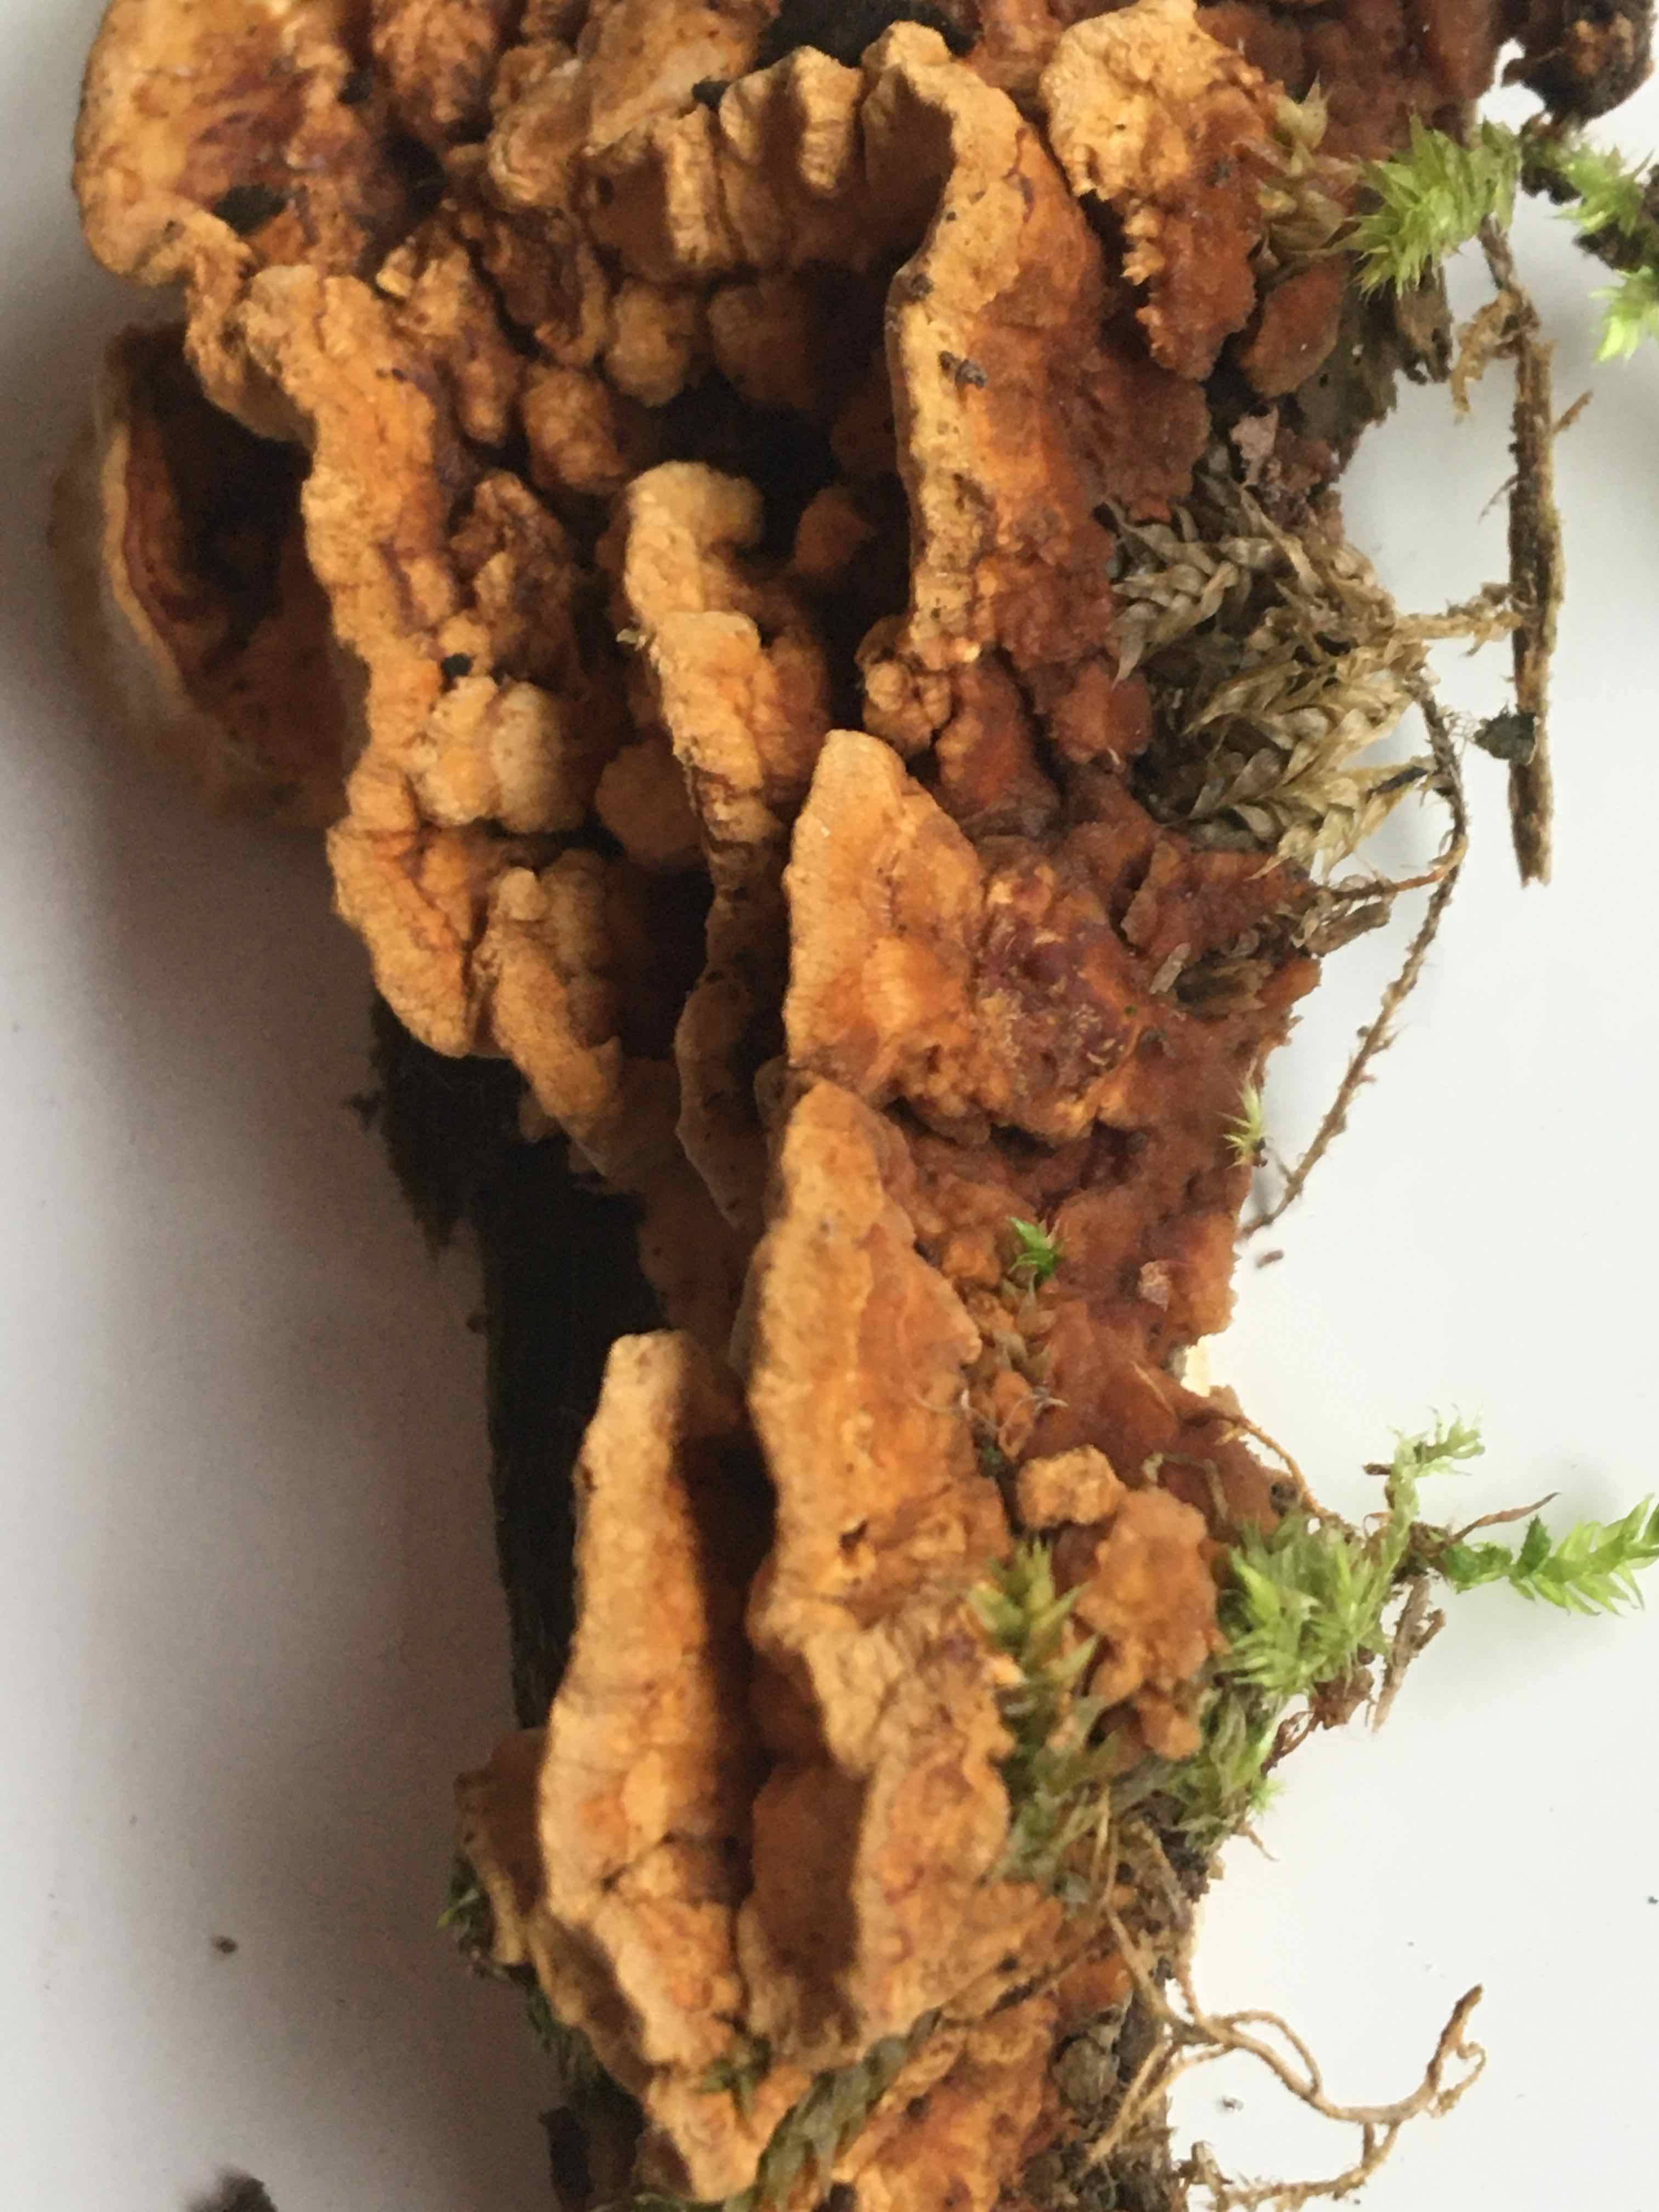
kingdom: Fungi
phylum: Basidiomycota
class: Agaricomycetes
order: Polyporales
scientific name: Polyporales
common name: poresvampordenen
